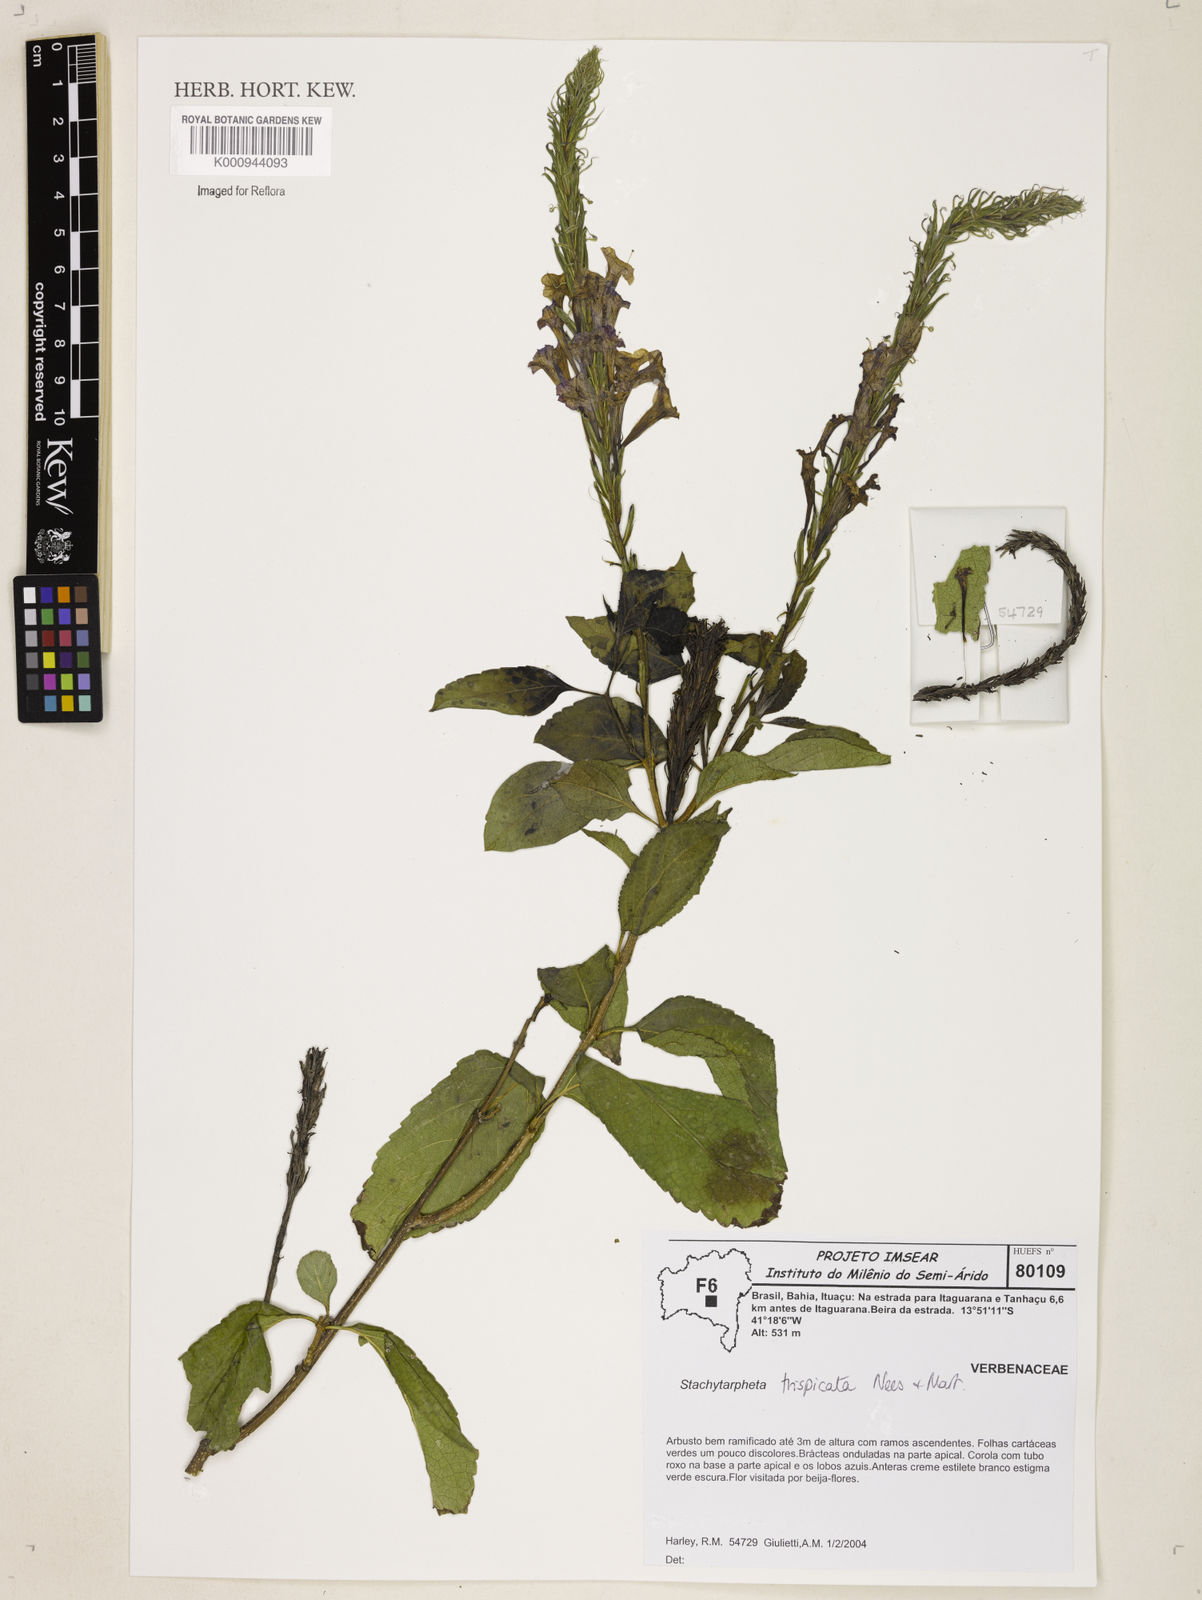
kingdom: Plantae
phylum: Tracheophyta
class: Magnoliopsida
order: Lamiales
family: Verbenaceae
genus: Stachytarpheta
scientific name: Stachytarpheta trispicata
